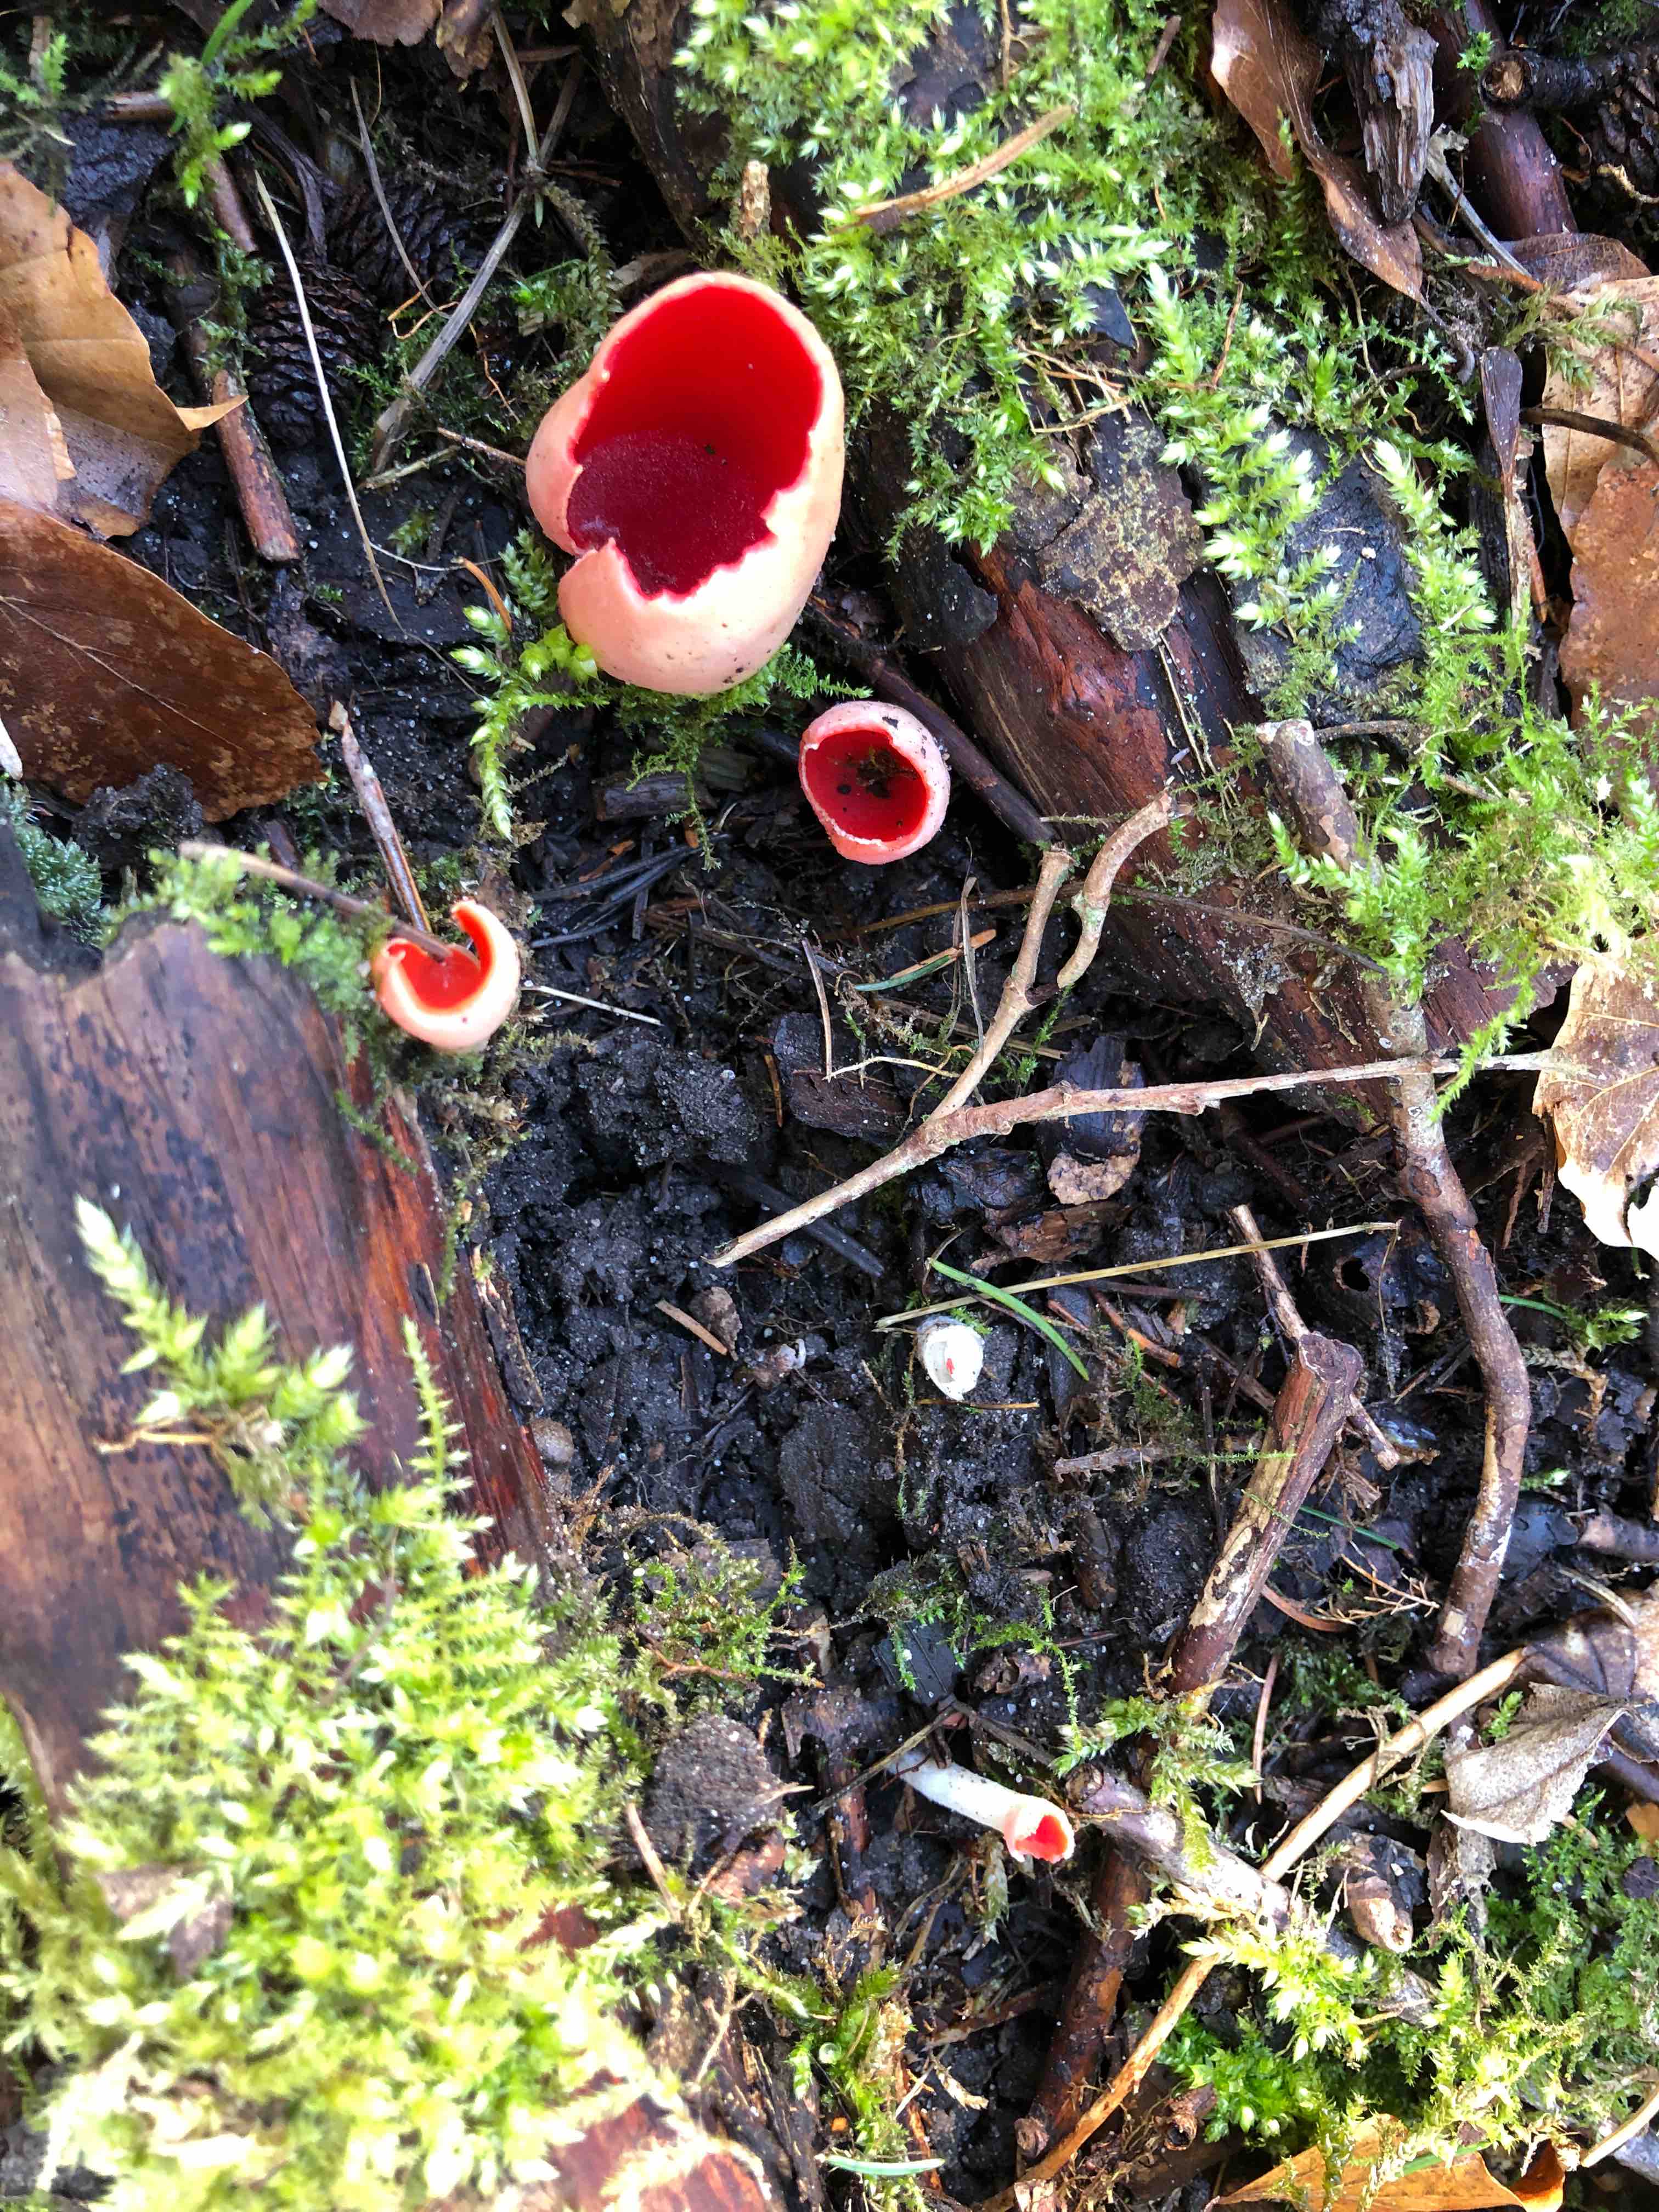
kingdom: Fungi
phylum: Ascomycota
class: Pezizomycetes
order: Pezizales
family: Sarcoscyphaceae
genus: Sarcoscypha
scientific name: Sarcoscypha austriaca
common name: krølhåret pragtbæger
